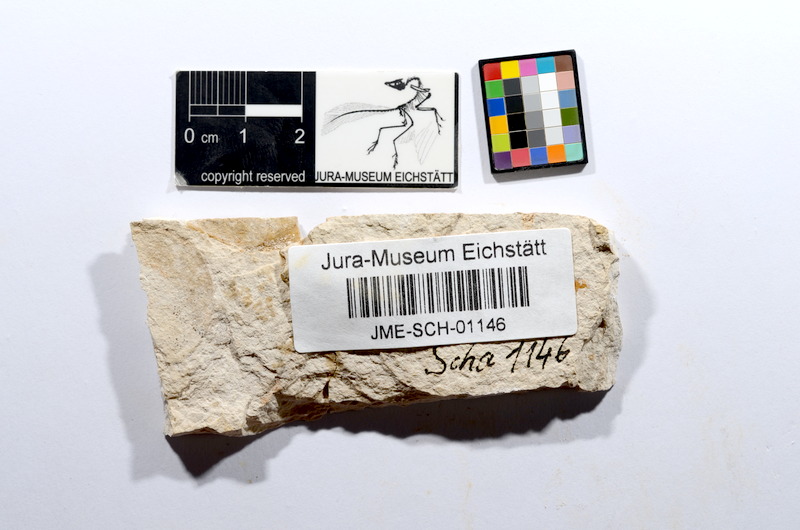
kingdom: Animalia
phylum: Chordata
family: Ascalaboidae
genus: Tharsis
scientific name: Tharsis dubius
